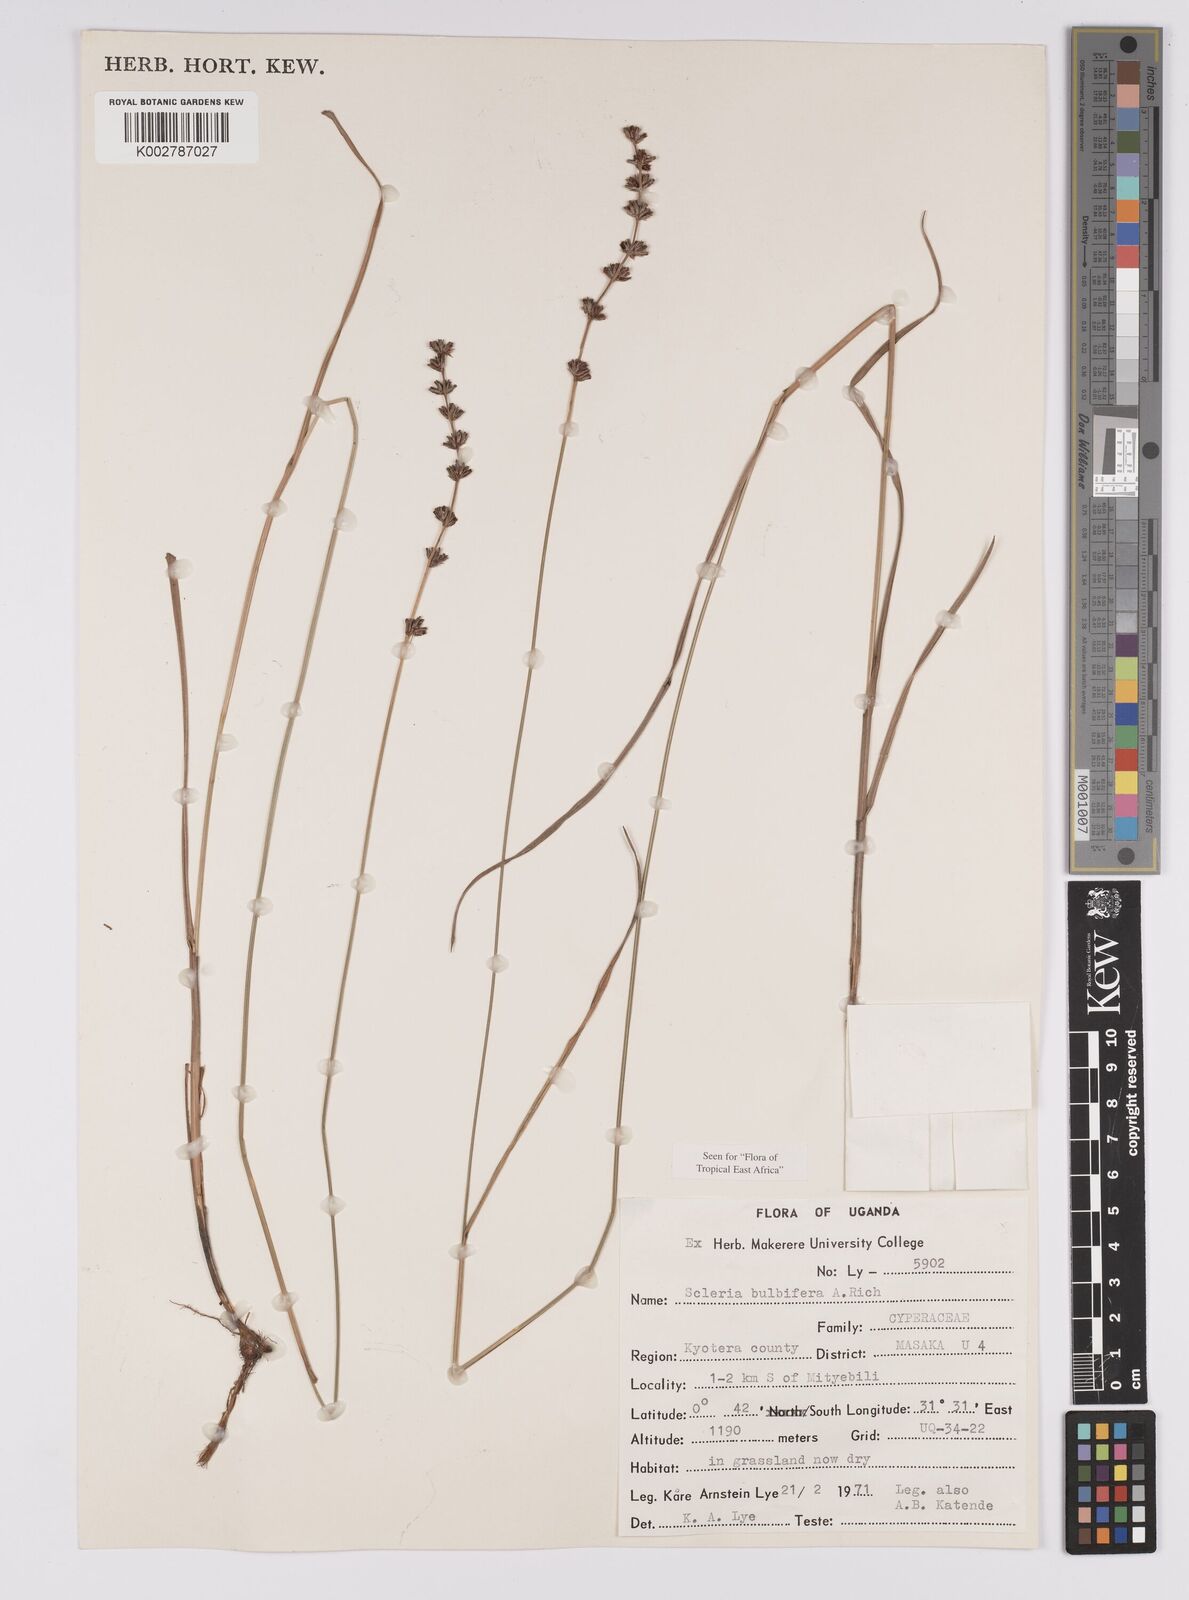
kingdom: Plantae
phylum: Tracheophyta
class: Liliopsida
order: Poales
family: Cyperaceae
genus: Scleria
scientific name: Scleria bulbifera
